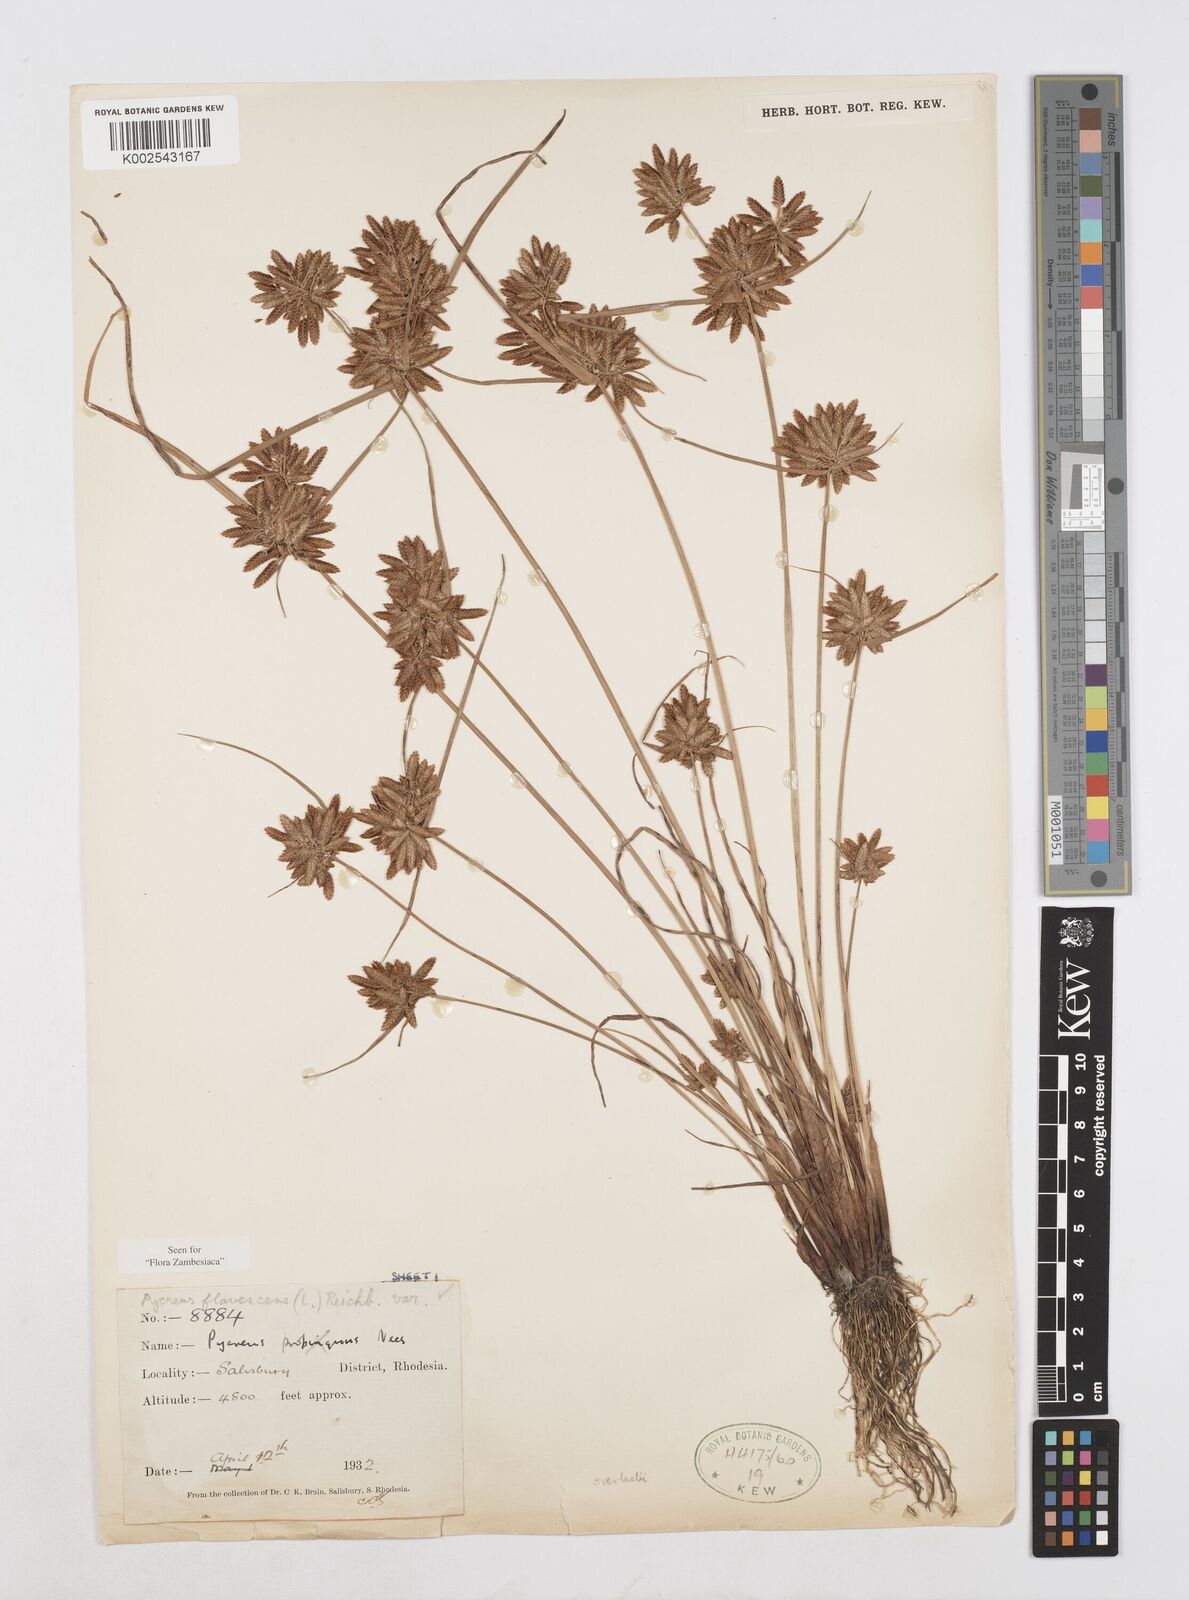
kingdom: Plantae
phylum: Tracheophyta
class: Liliopsida
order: Poales
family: Cyperaceae
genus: Cyperus
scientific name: Cyperus flavescens
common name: Yellow galingale
